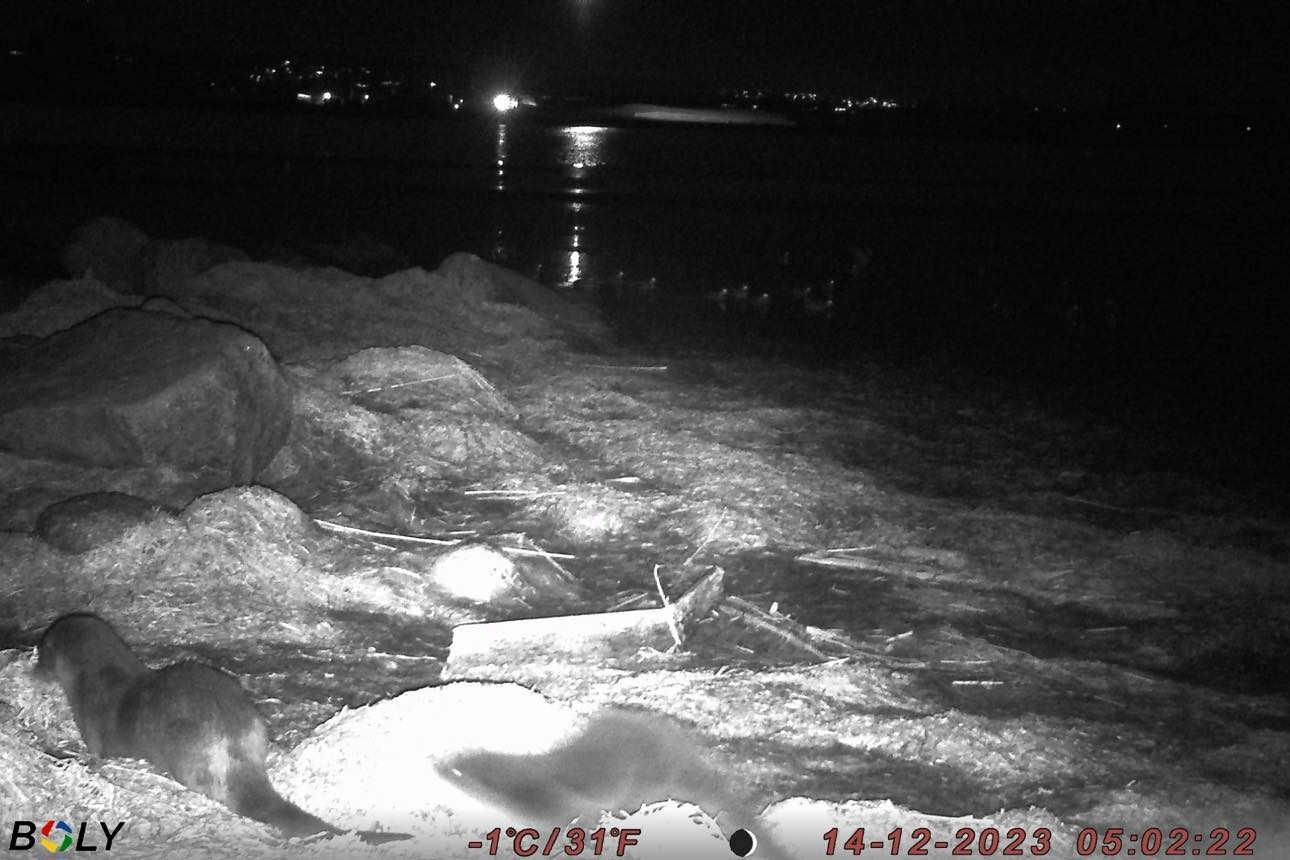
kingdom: Animalia
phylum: Chordata
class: Mammalia
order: Carnivora
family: Mustelidae
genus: Lutra
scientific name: Lutra lutra
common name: Odder
